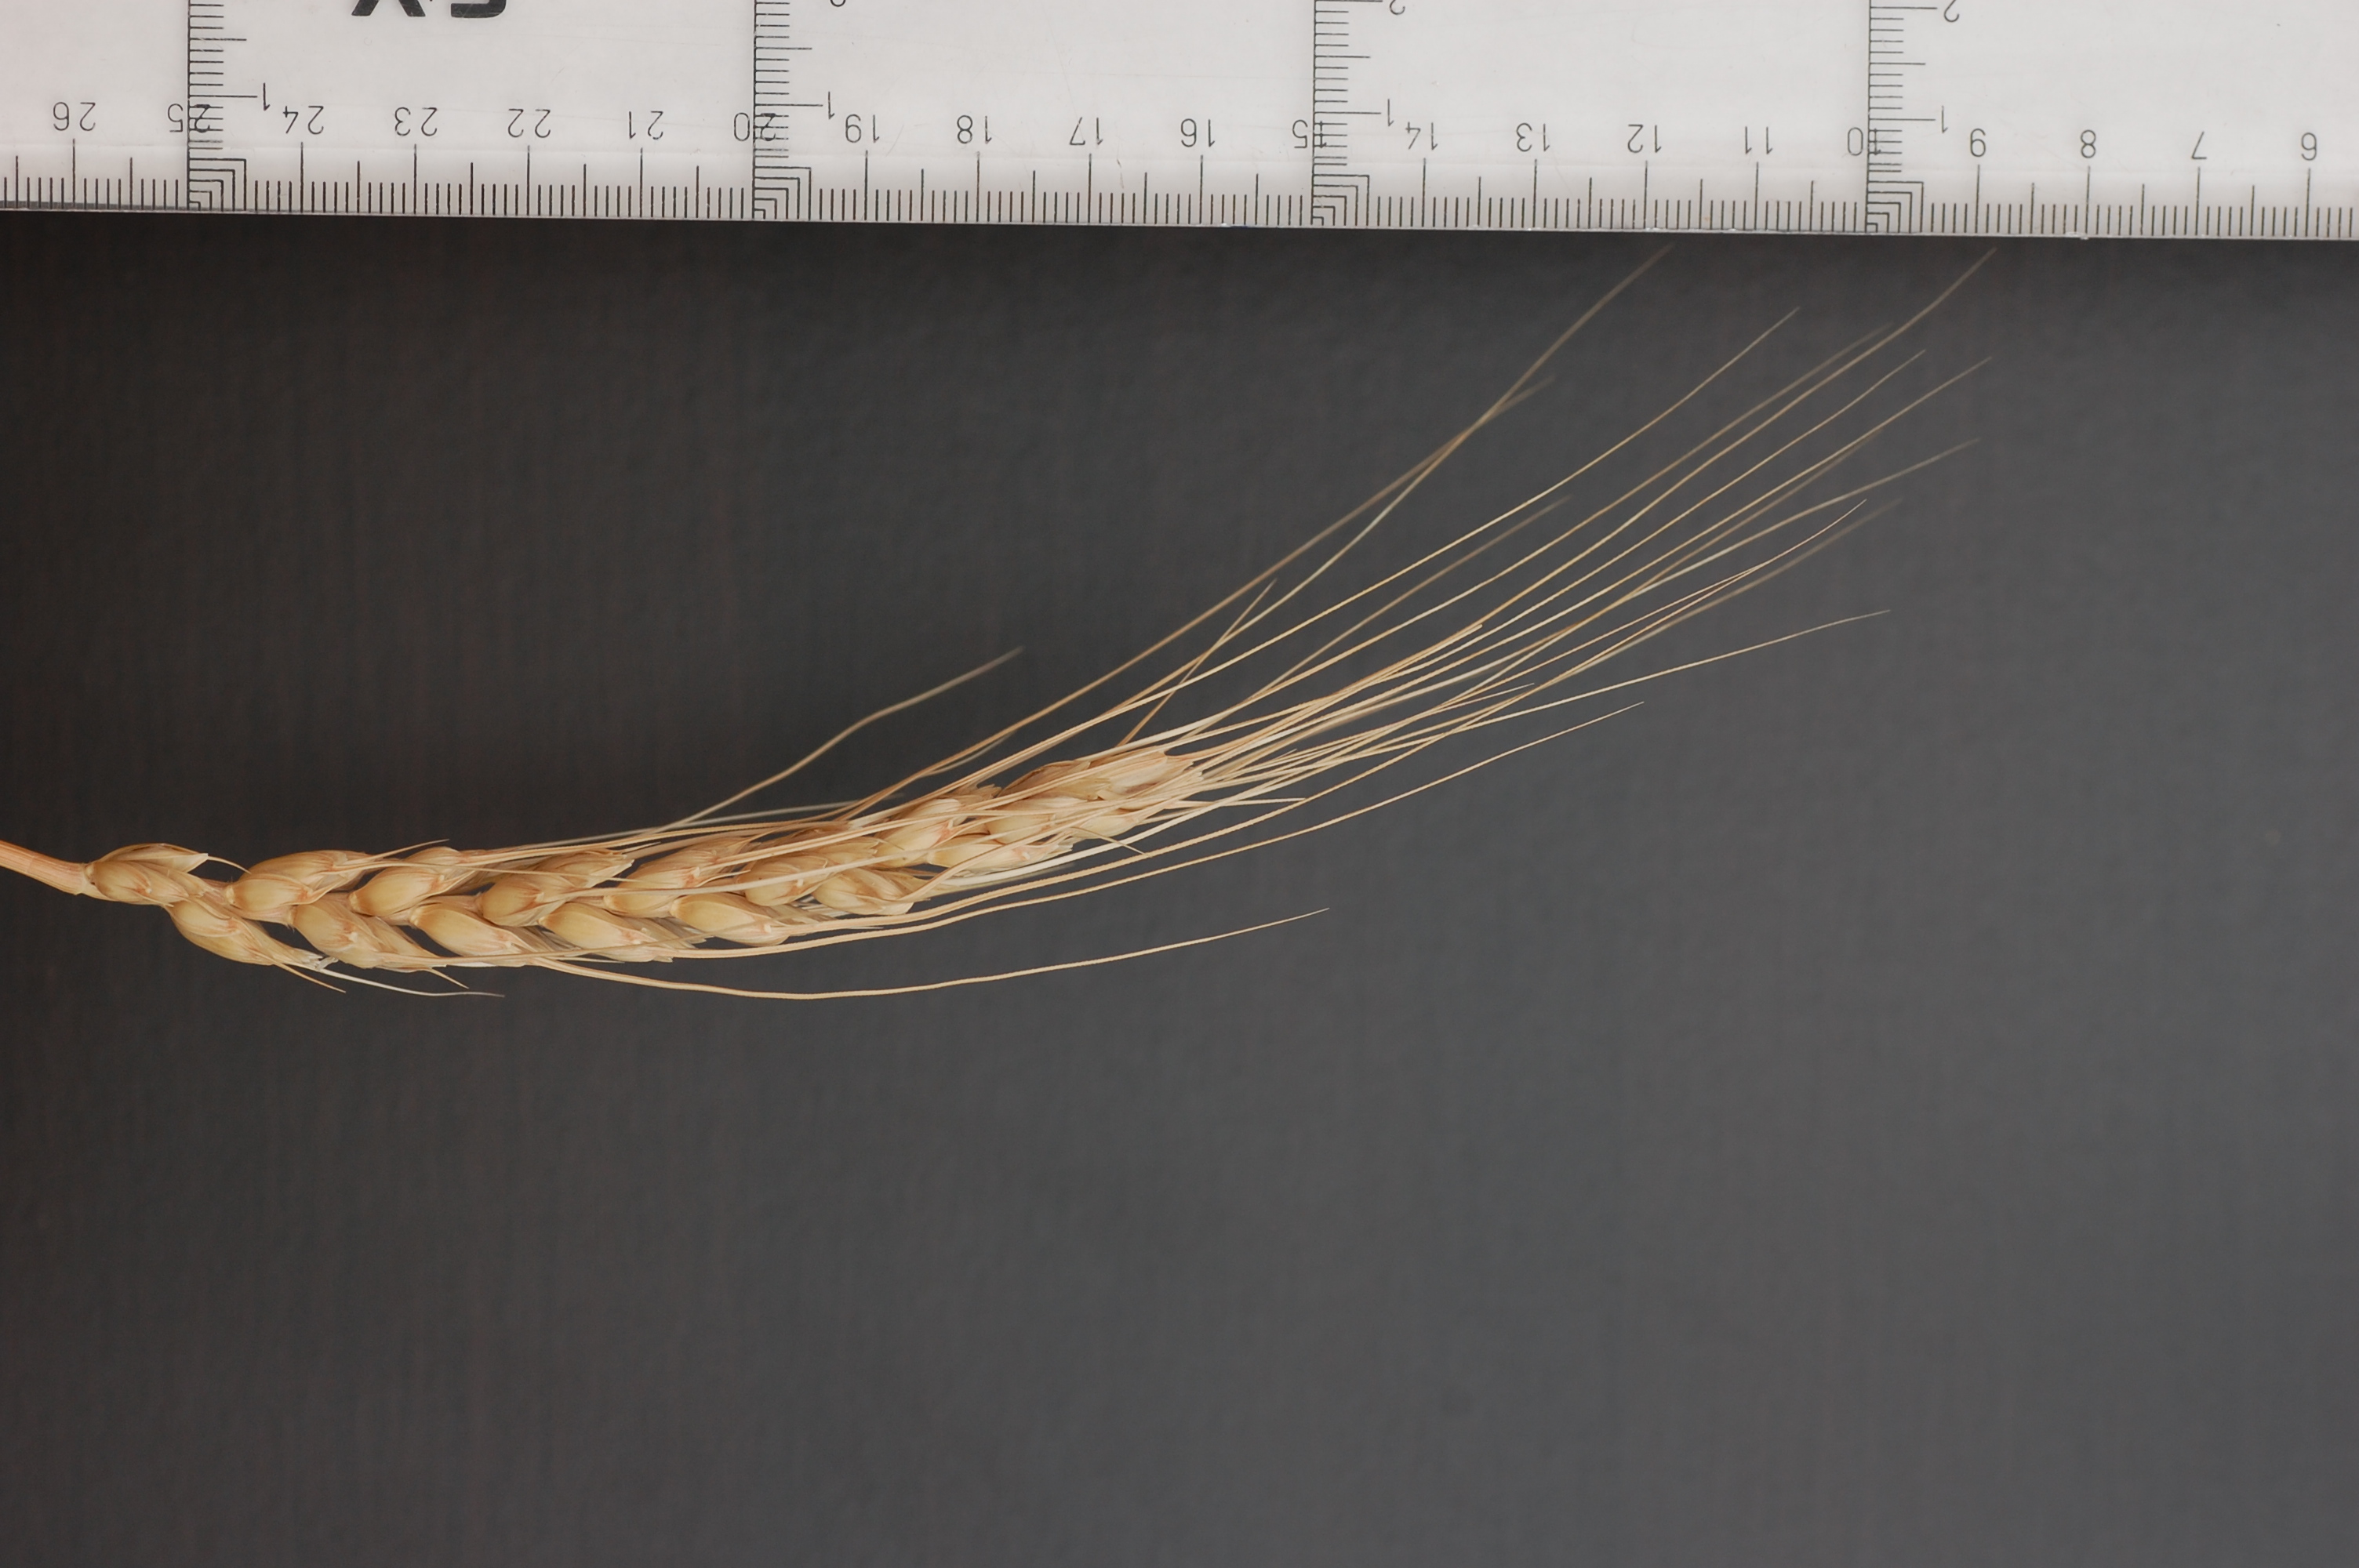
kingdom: Plantae
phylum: Tracheophyta
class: Liliopsida
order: Poales
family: Poaceae
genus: Triticum
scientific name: Triticum aestivum
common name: Common wheat
